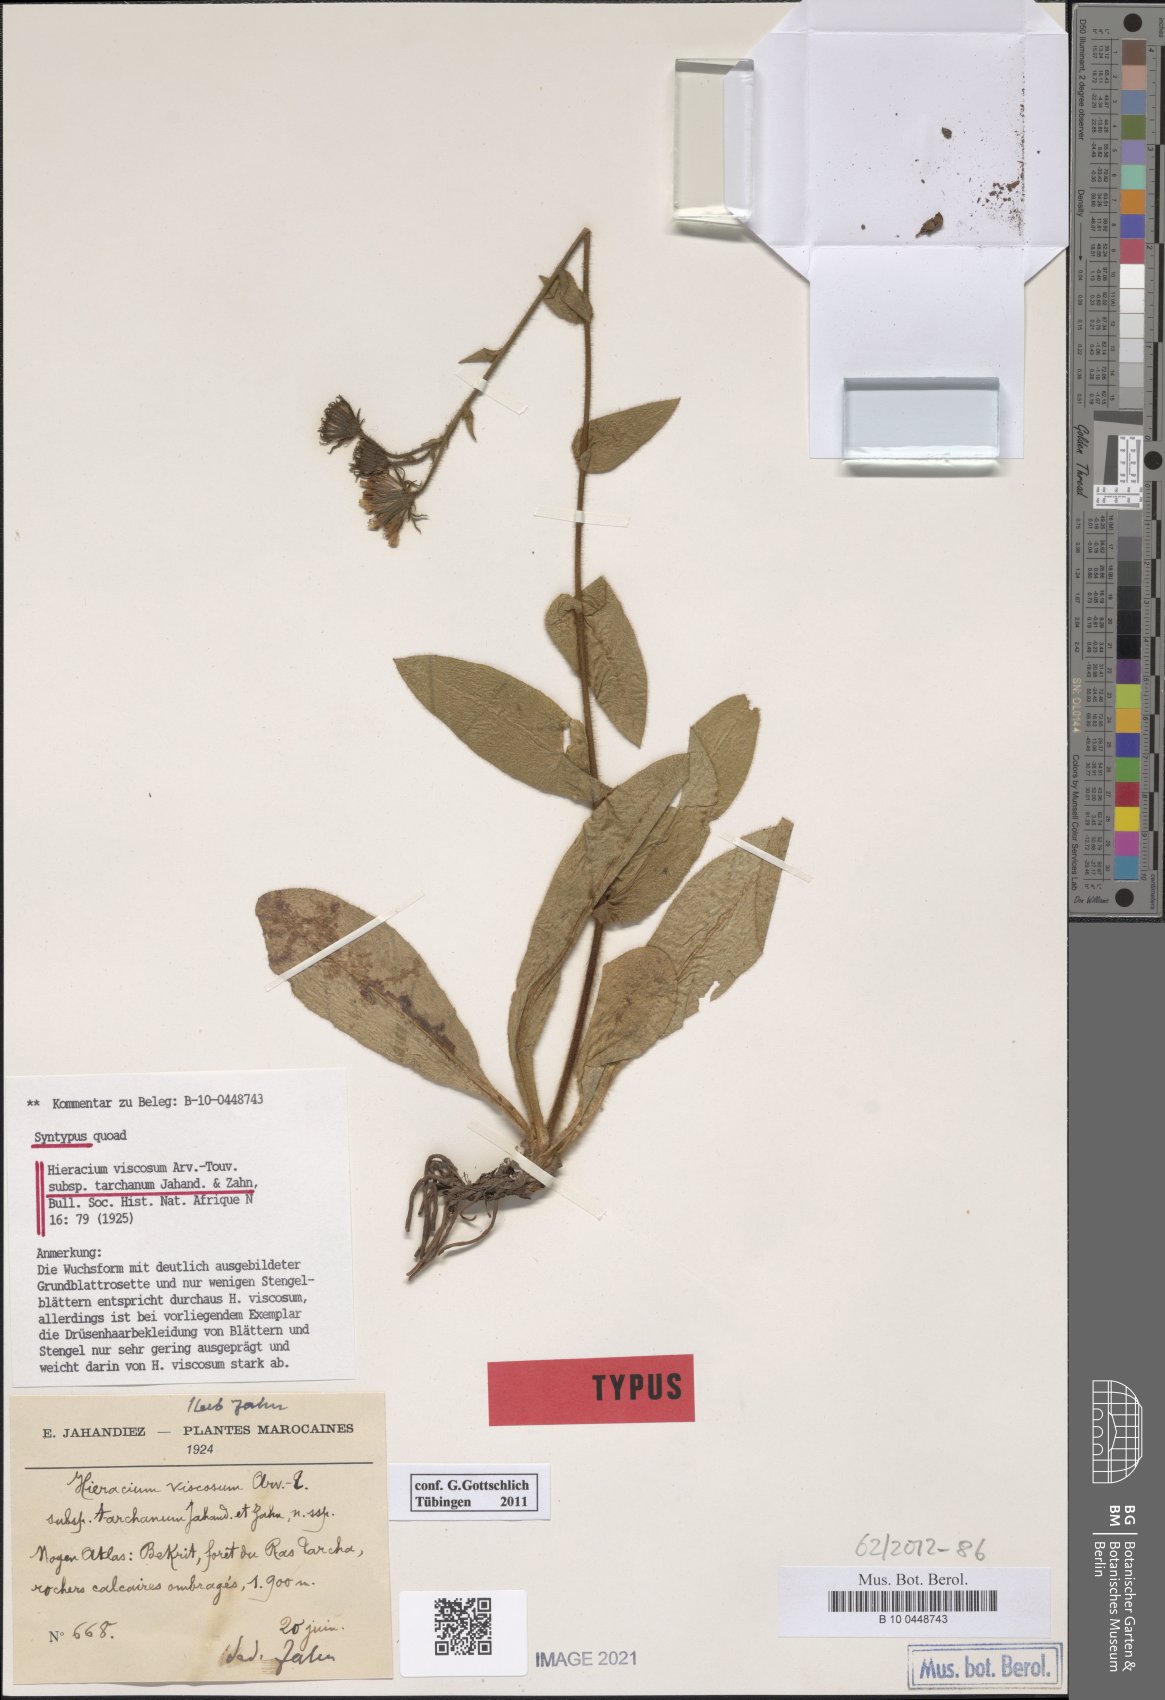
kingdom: Plantae
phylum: Tracheophyta
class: Magnoliopsida
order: Asterales
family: Asteraceae
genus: Hieracium
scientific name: Hieracium viscosum
